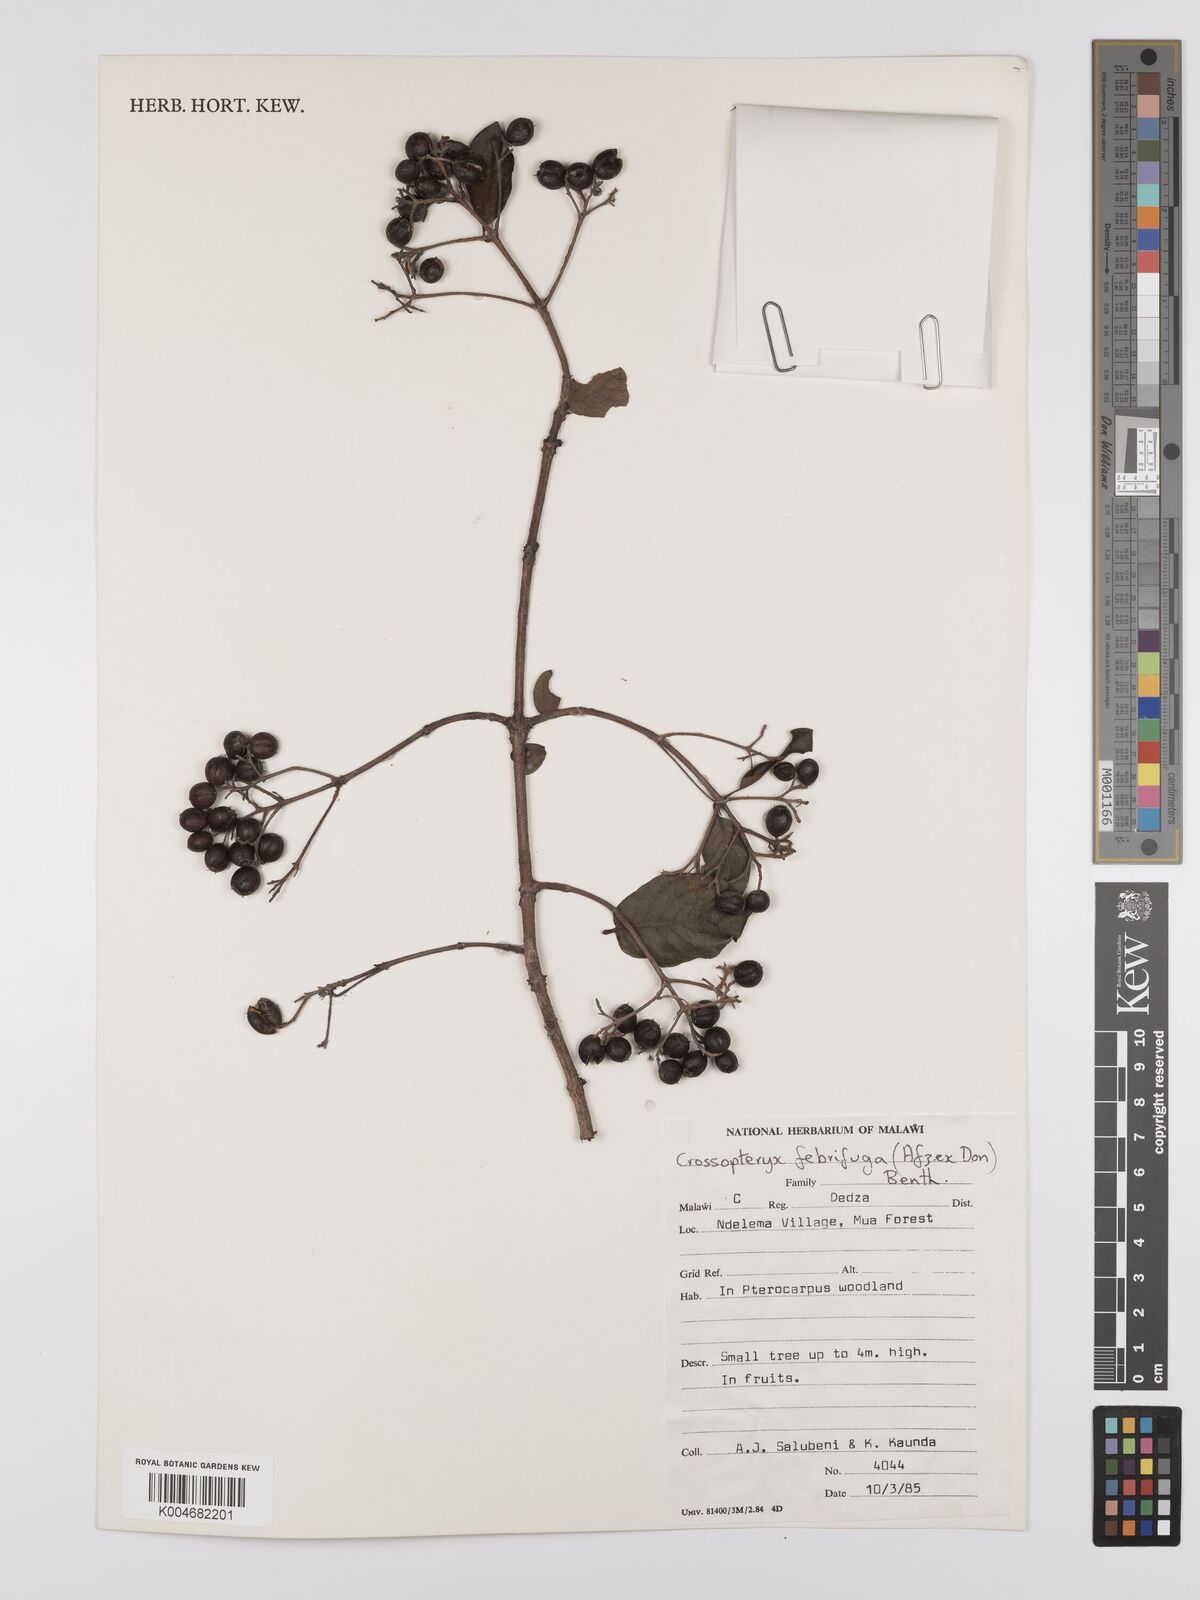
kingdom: Plantae
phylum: Tracheophyta
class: Magnoliopsida
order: Gentianales
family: Rubiaceae
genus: Crossopteryx
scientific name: Crossopteryx febrifuga
